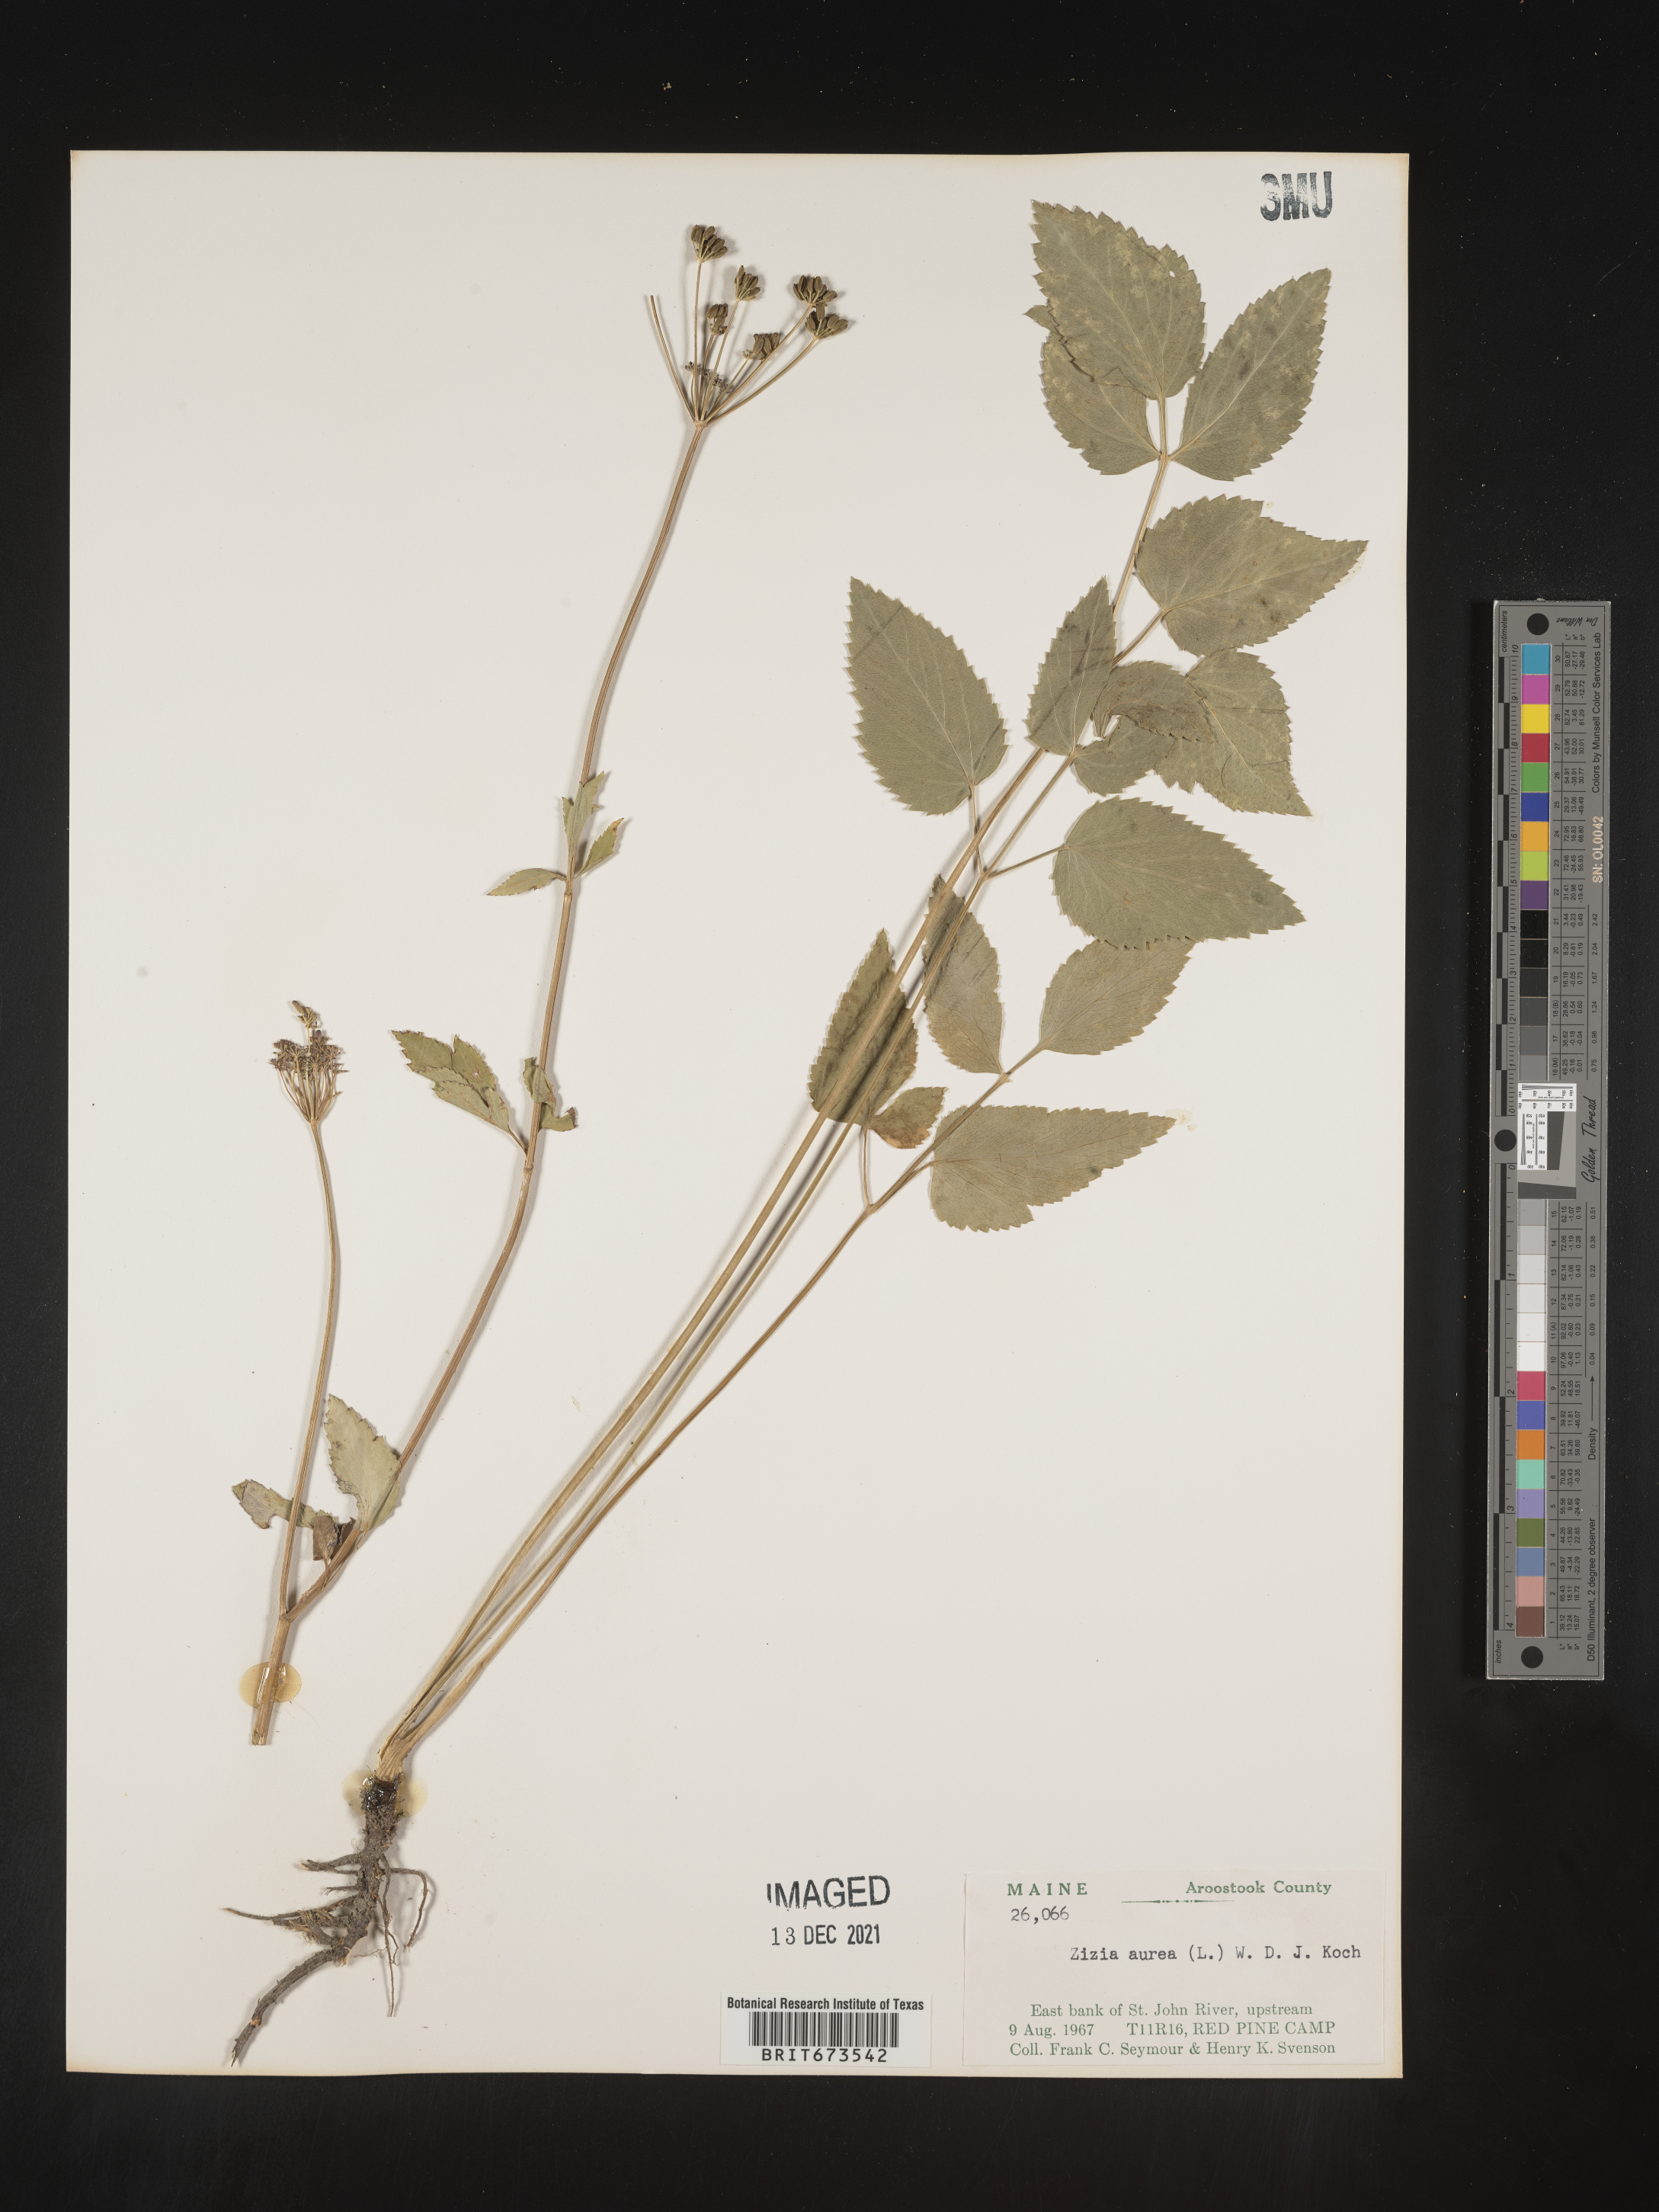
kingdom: Plantae
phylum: Tracheophyta
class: Magnoliopsida
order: Apiales
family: Apiaceae
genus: Zizia
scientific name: Zizia aurea
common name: Golden alexanders
